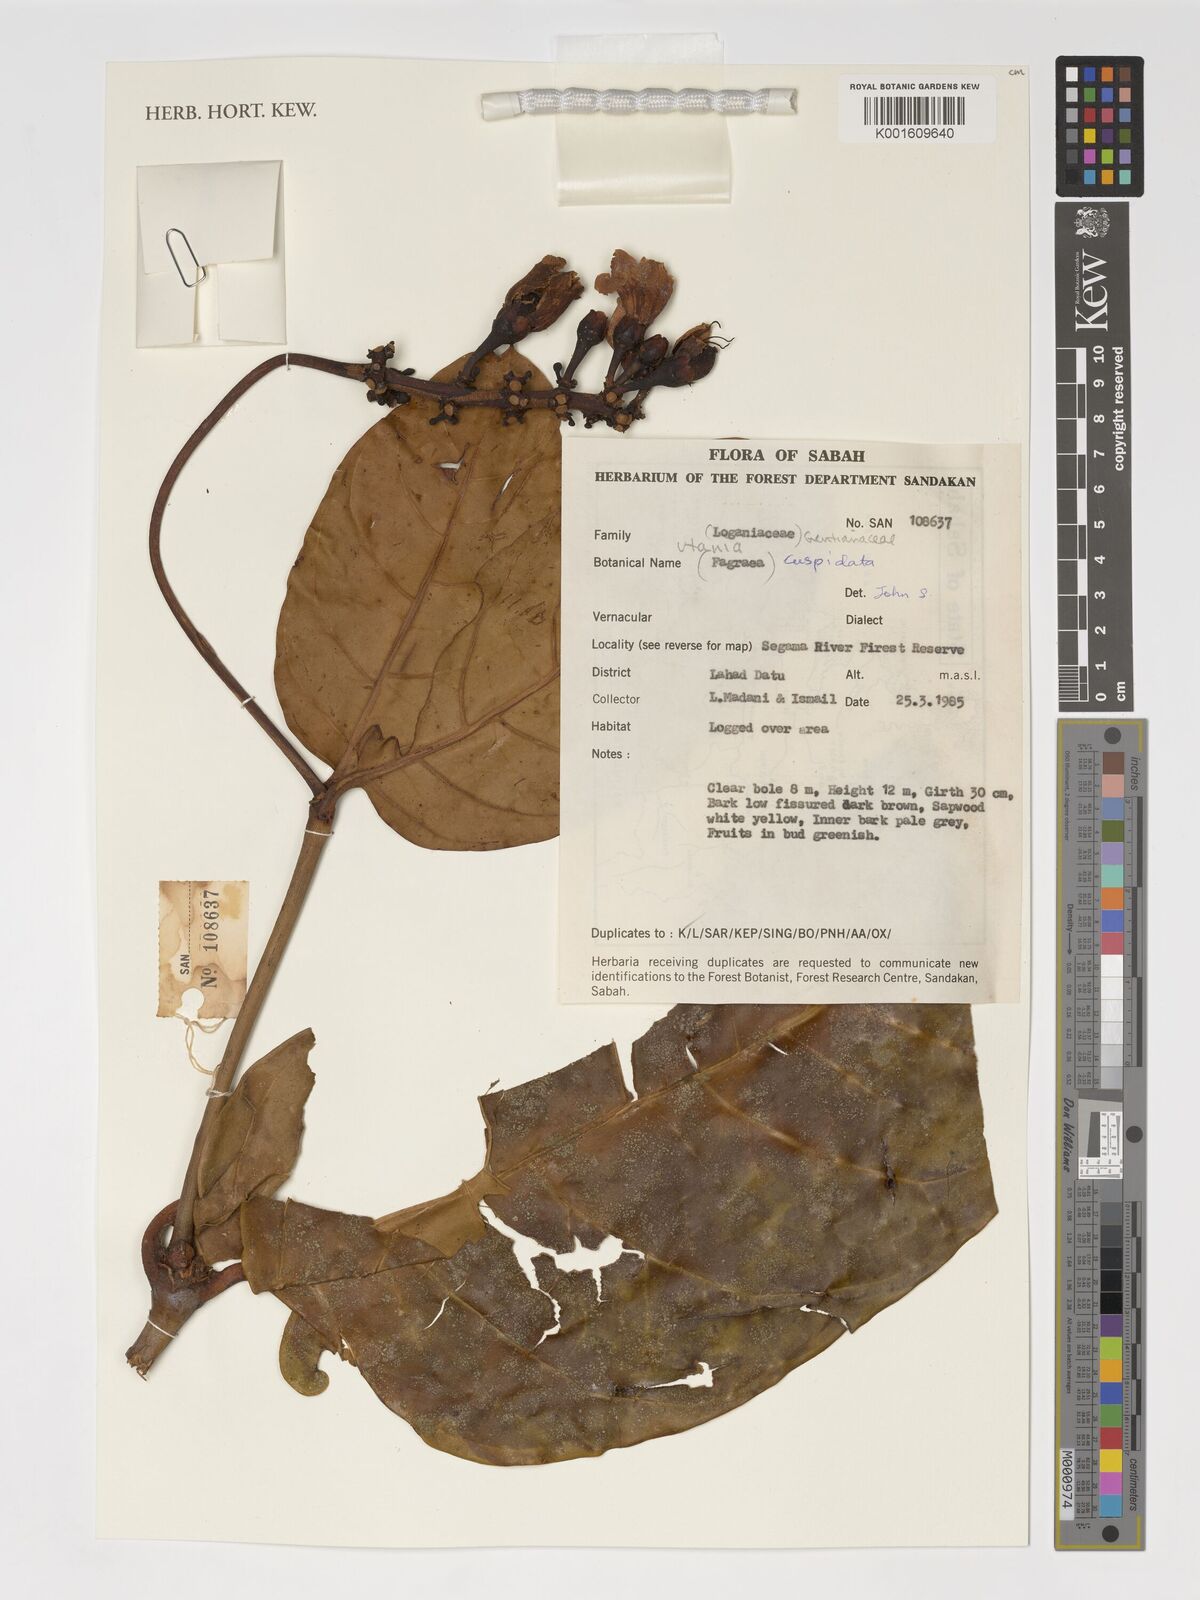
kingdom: Plantae
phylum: Tracheophyta
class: Magnoliopsida
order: Gentianales
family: Gentianaceae
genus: Utania
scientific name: Utania cuspidata
